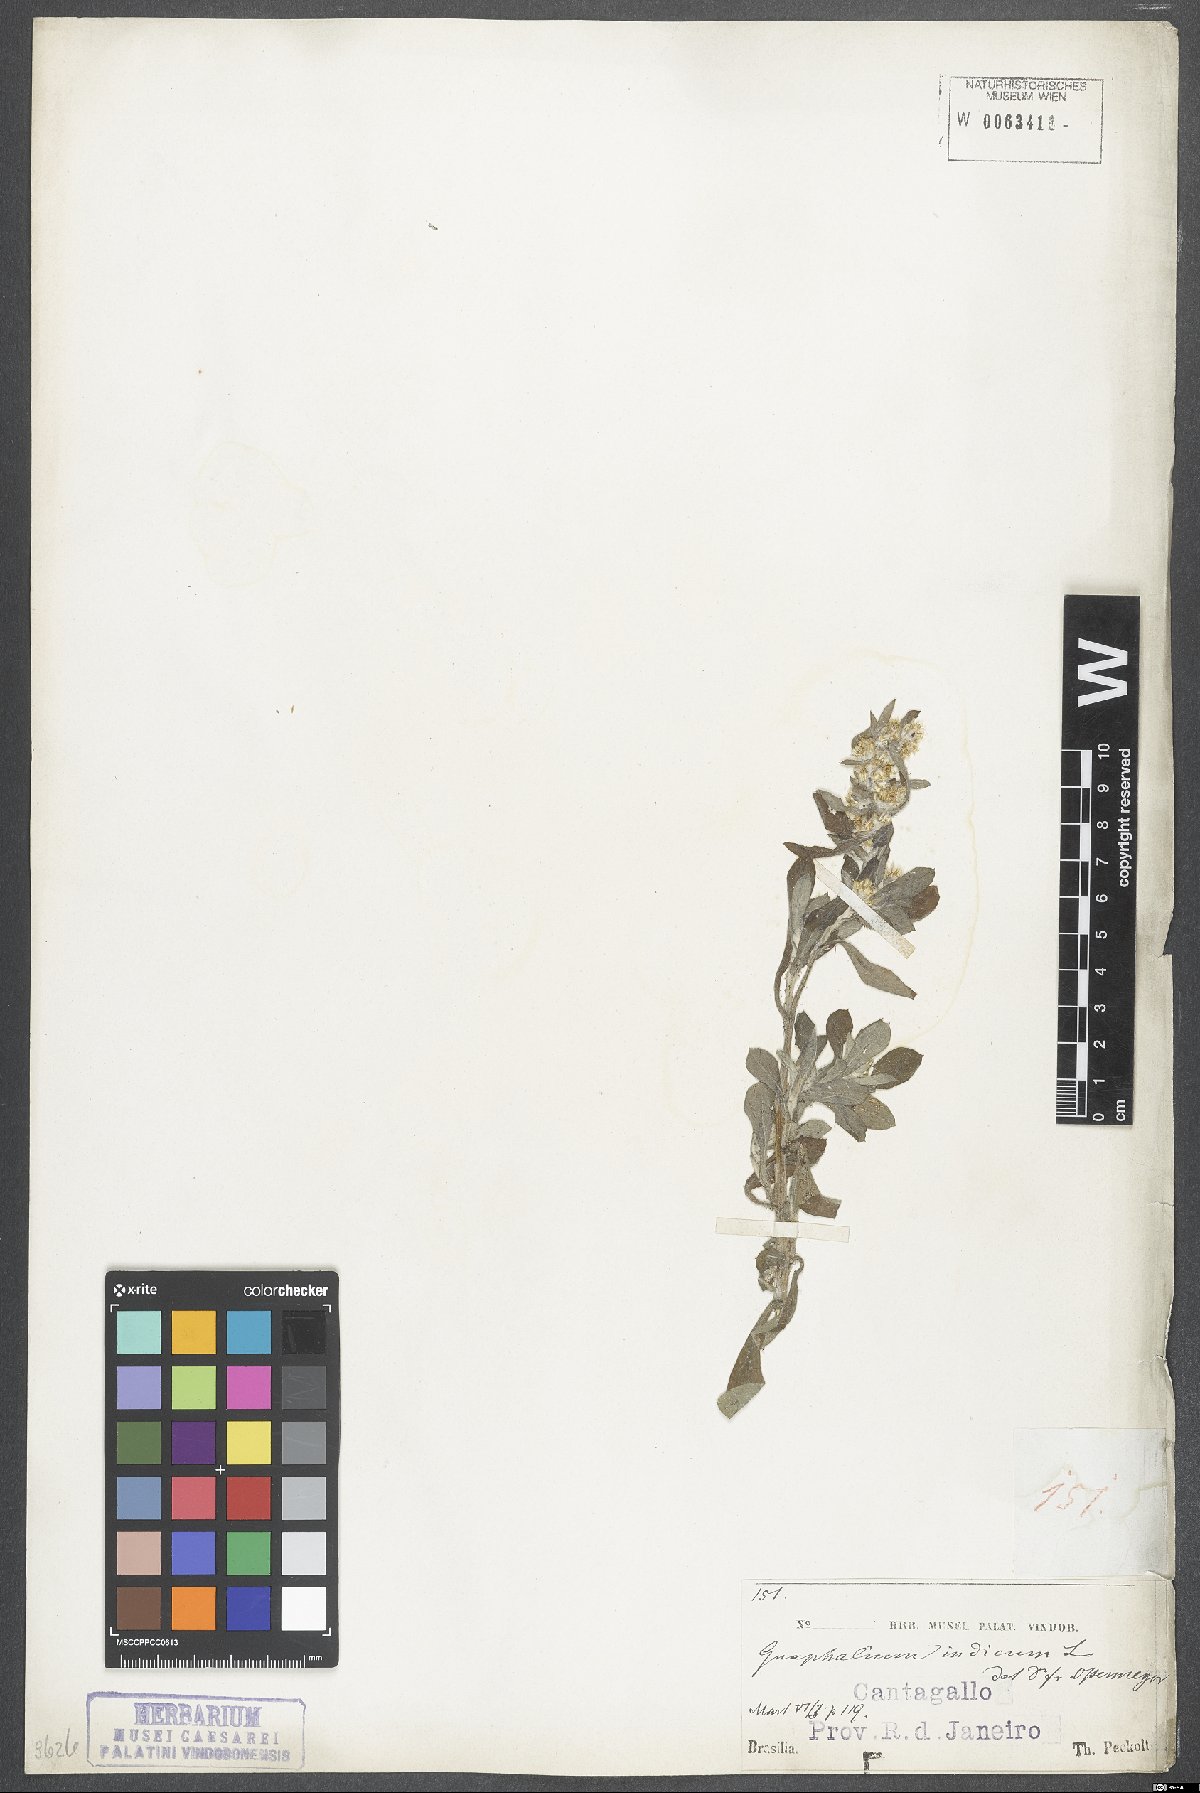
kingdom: Plantae
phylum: Tracheophyta
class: Magnoliopsida
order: Asterales
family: Asteraceae
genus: Helichrysum
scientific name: Helichrysum indicum
